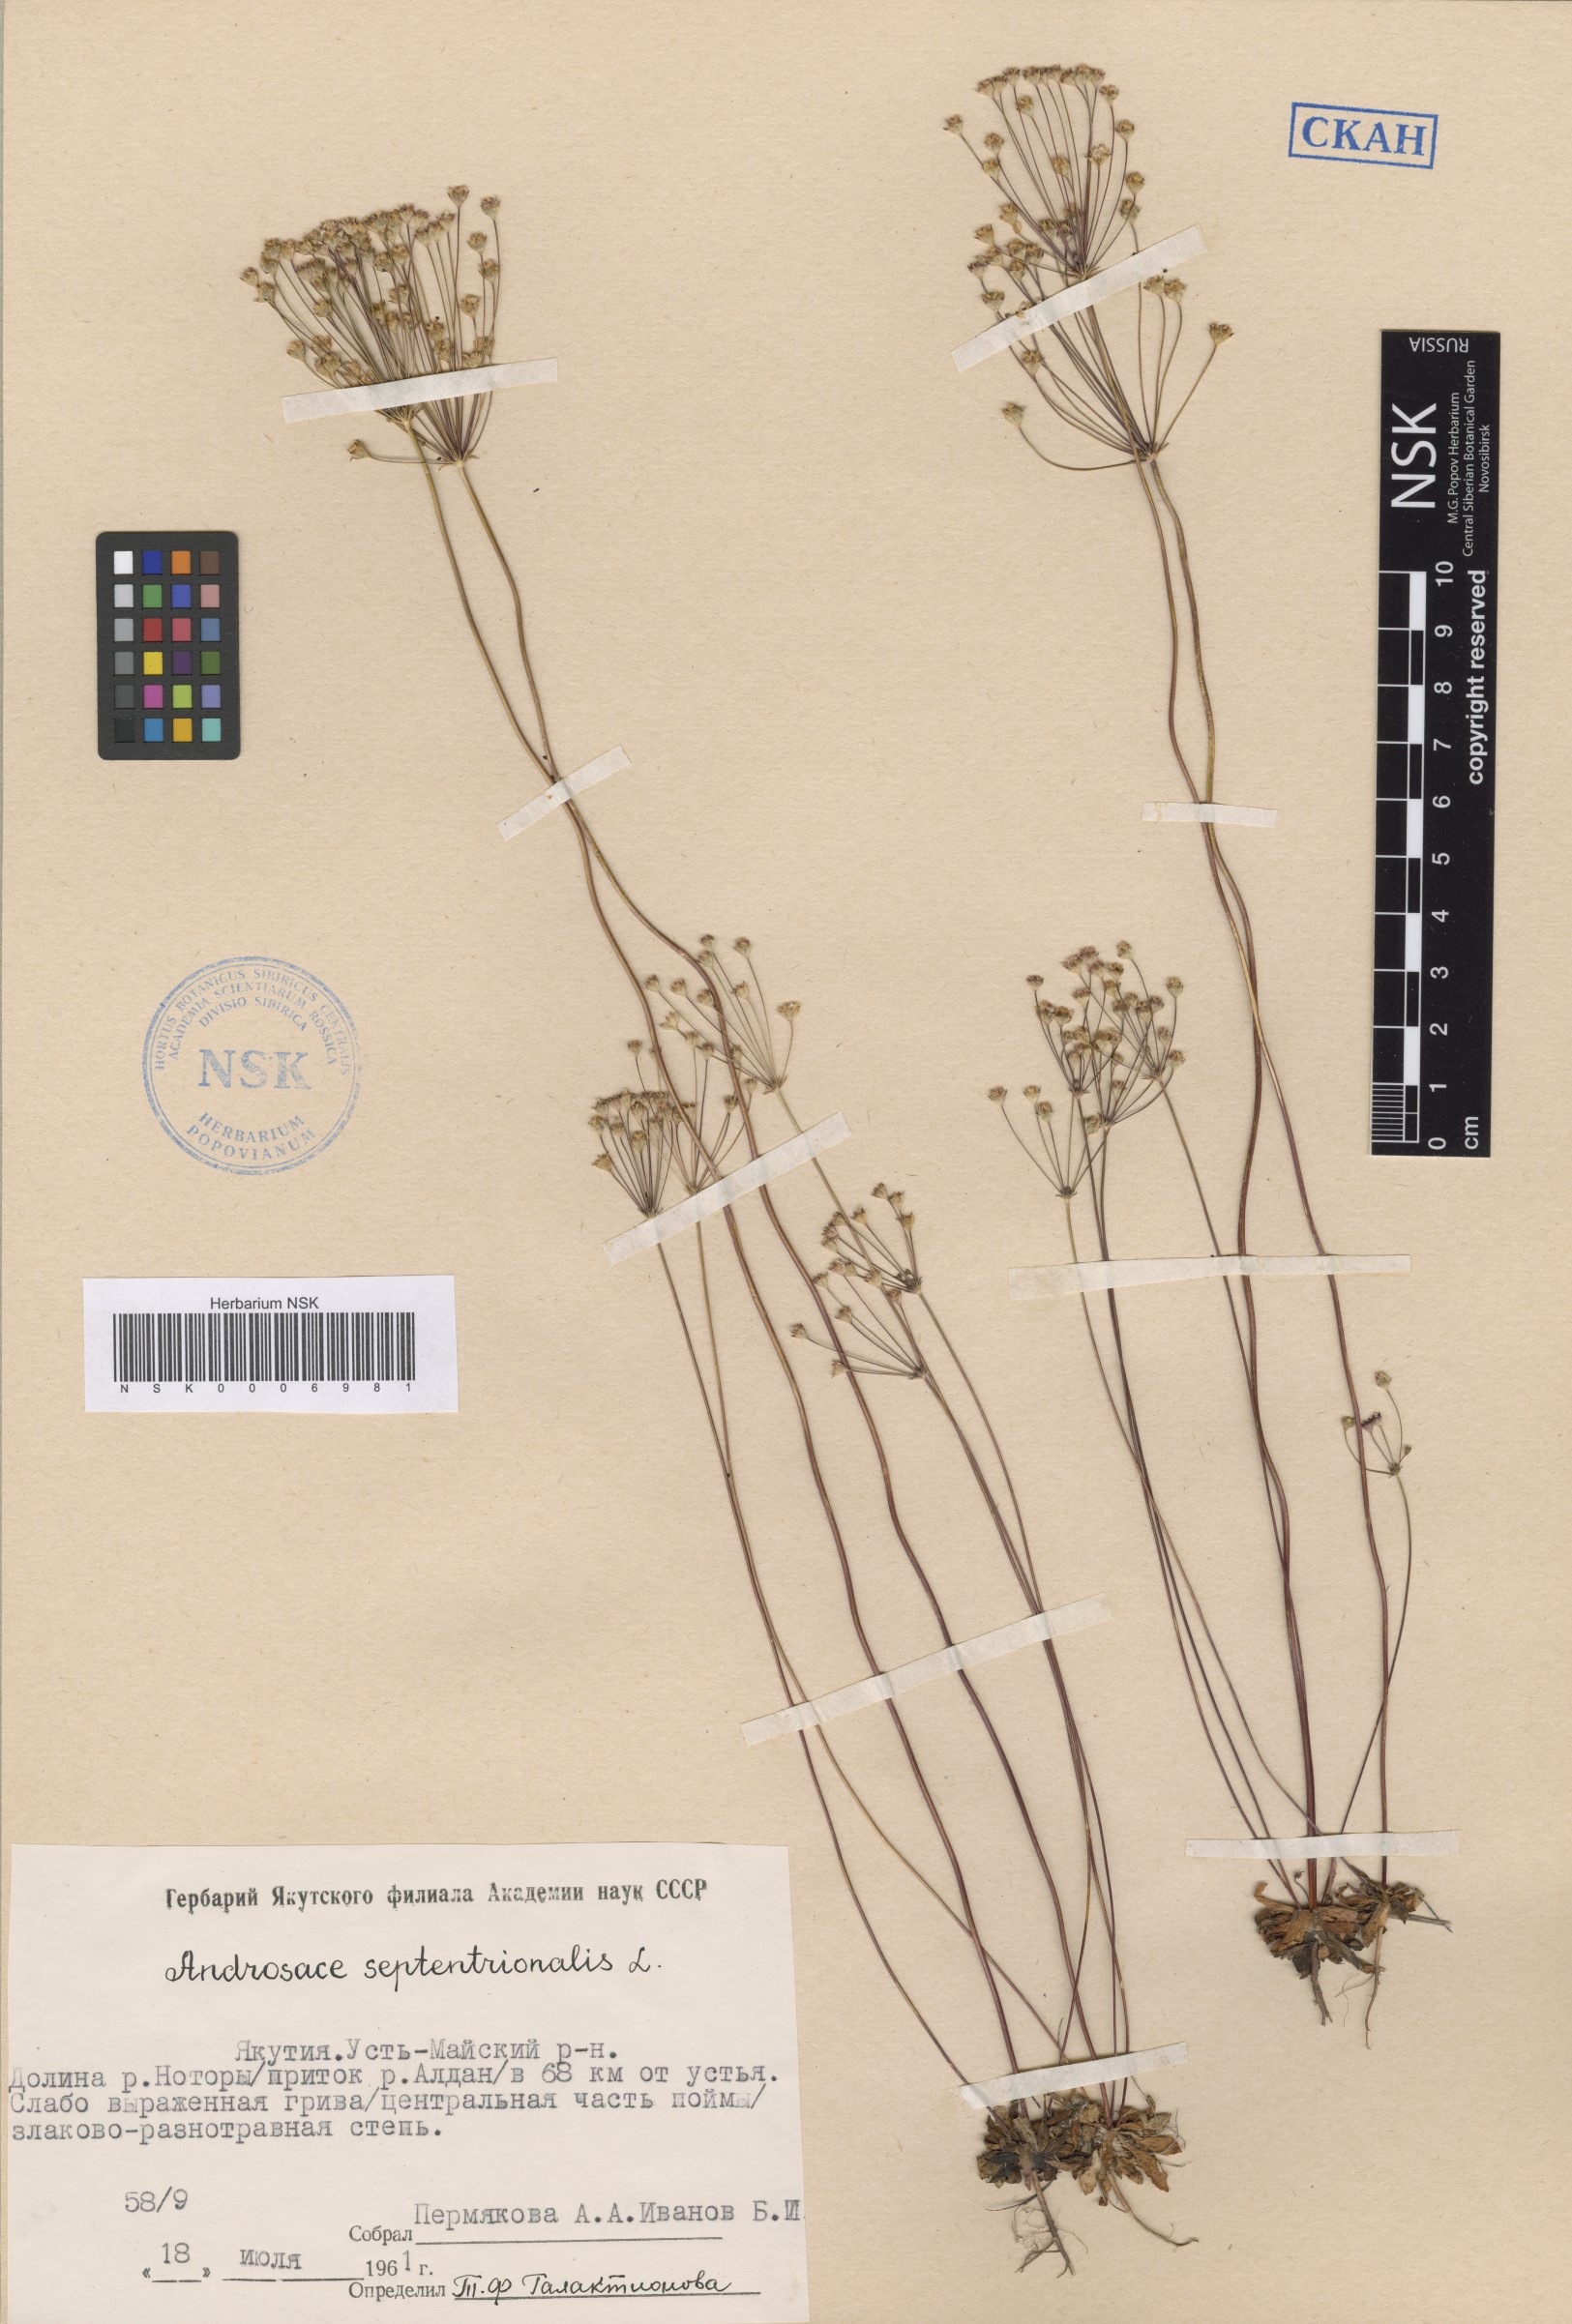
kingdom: Plantae
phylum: Tracheophyta
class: Magnoliopsida
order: Ericales
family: Primulaceae
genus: Androsace
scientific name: Androsace septentrionalis
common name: Hairy northern fairy-candelabra
